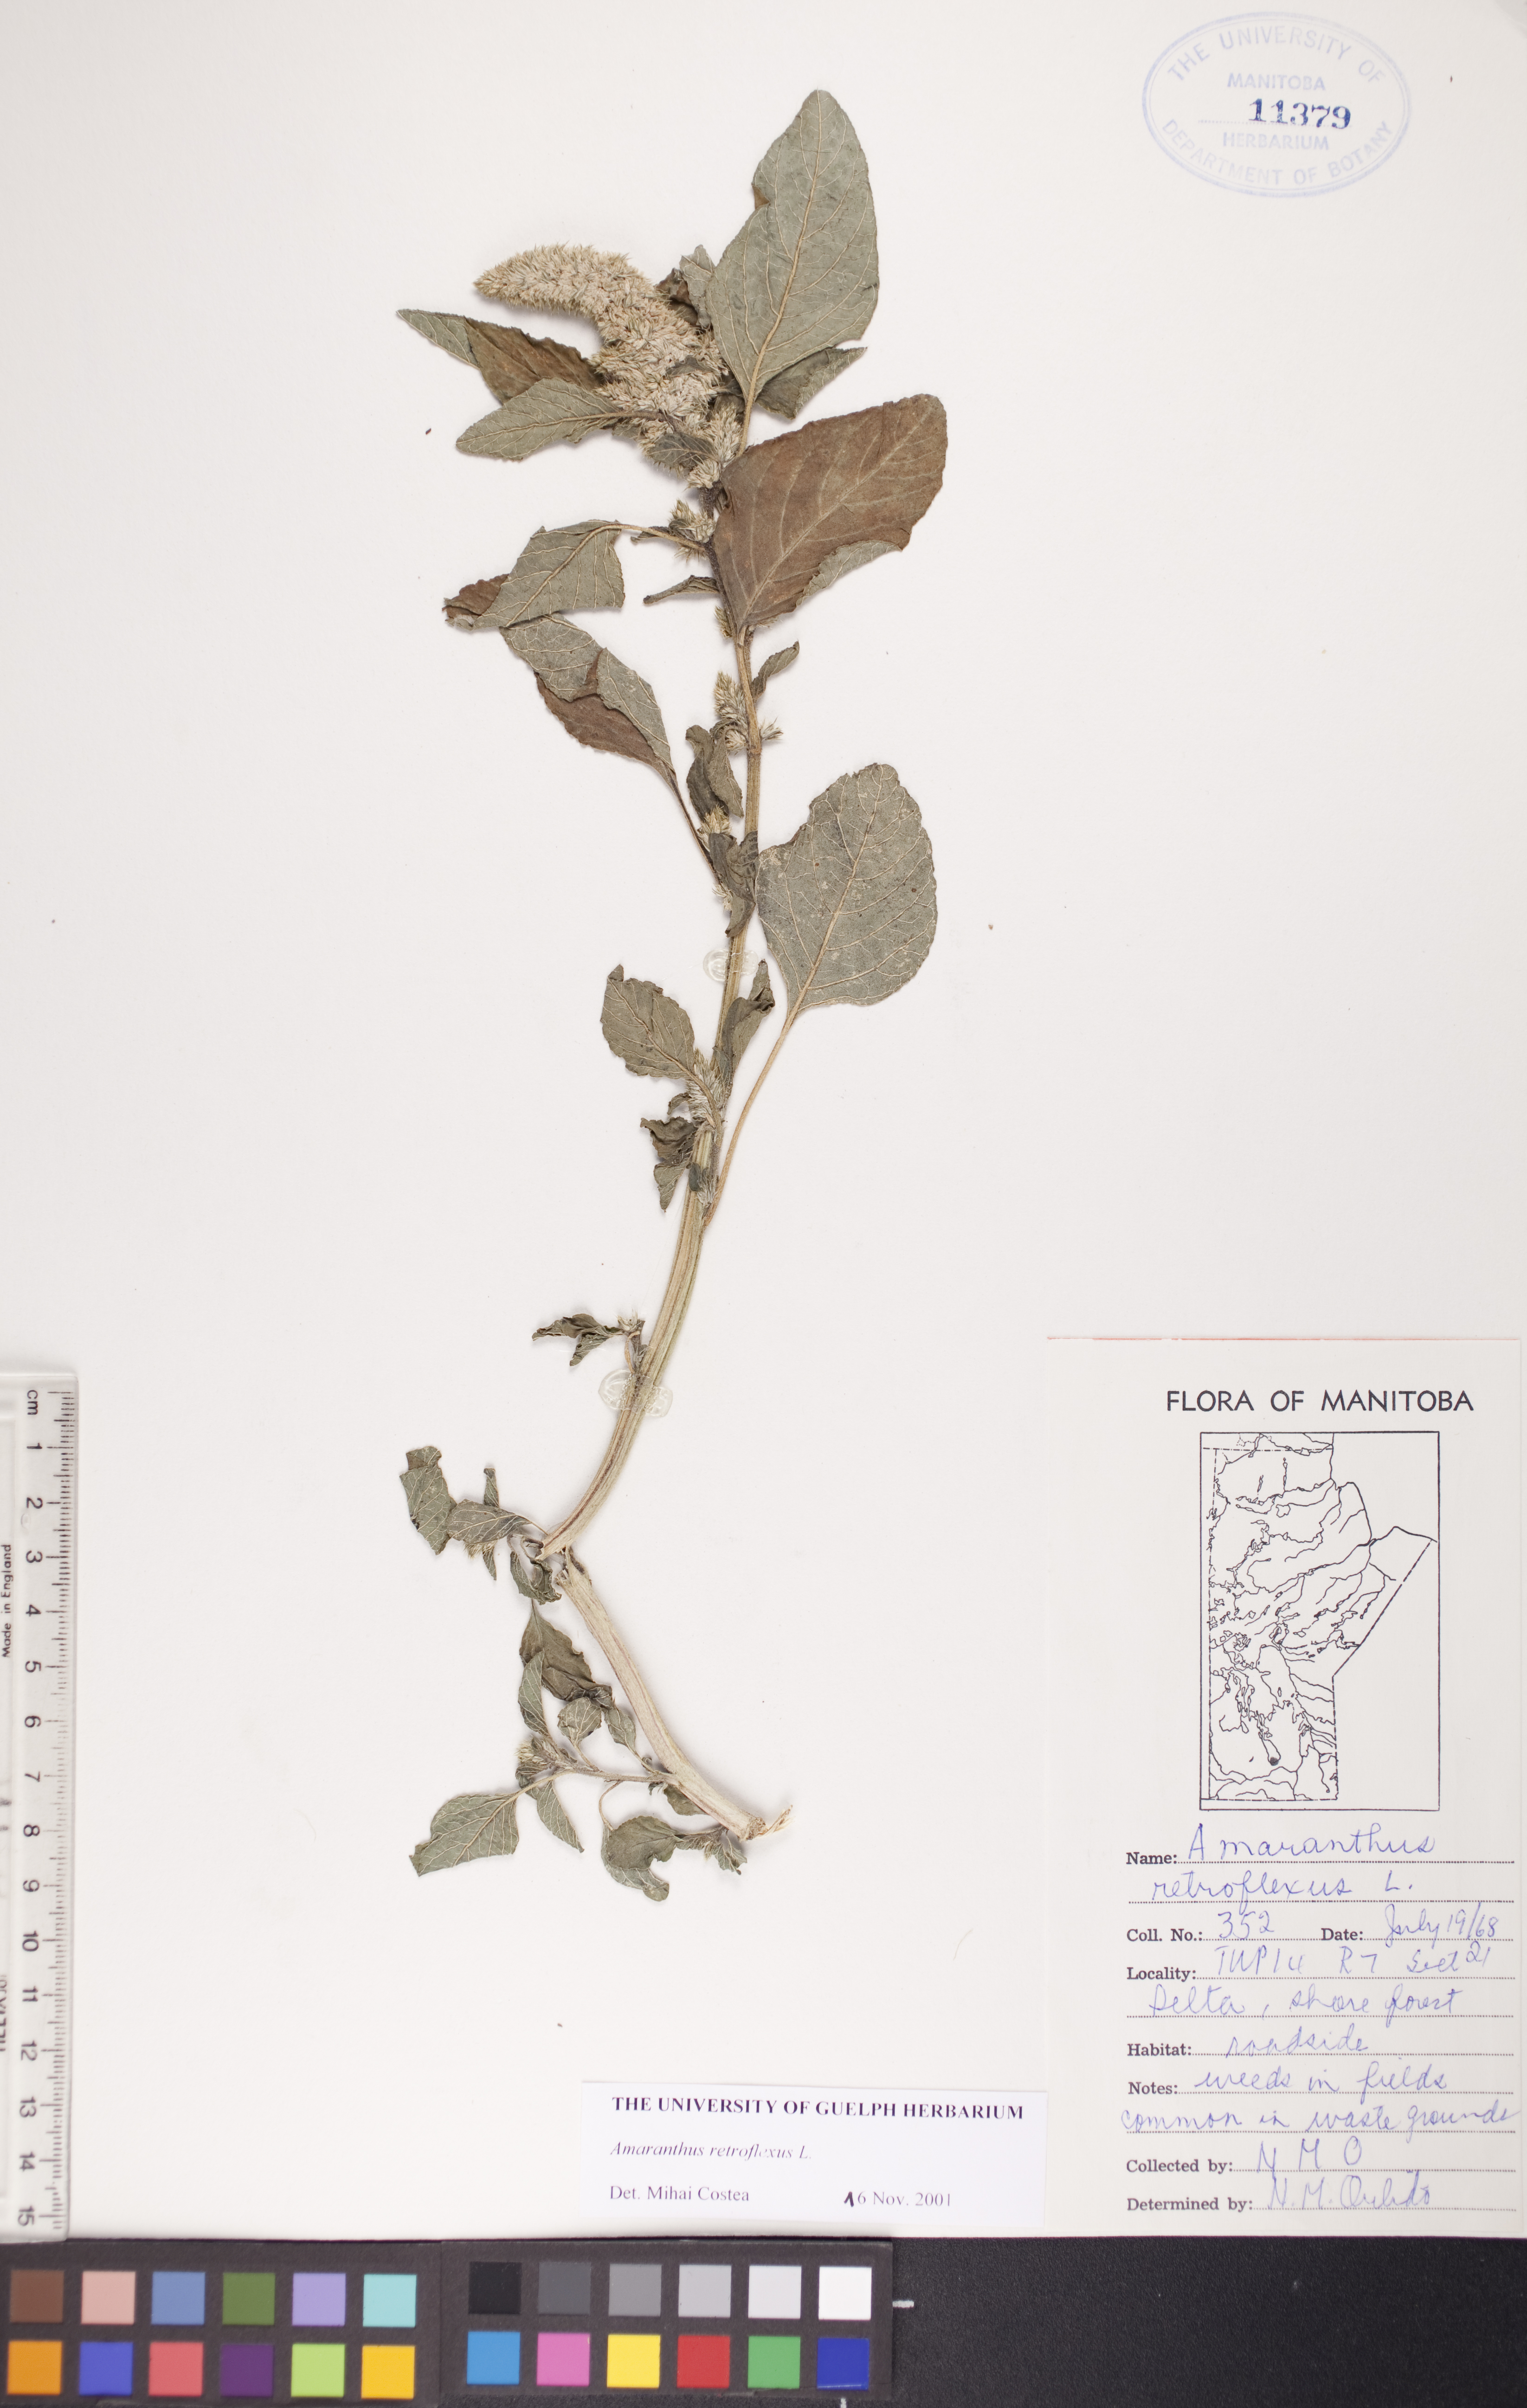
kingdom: Plantae
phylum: Tracheophyta
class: Magnoliopsida
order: Caryophyllales
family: Amaranthaceae
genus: Amaranthus
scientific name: Amaranthus retroflexus
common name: Redroot amaranth
